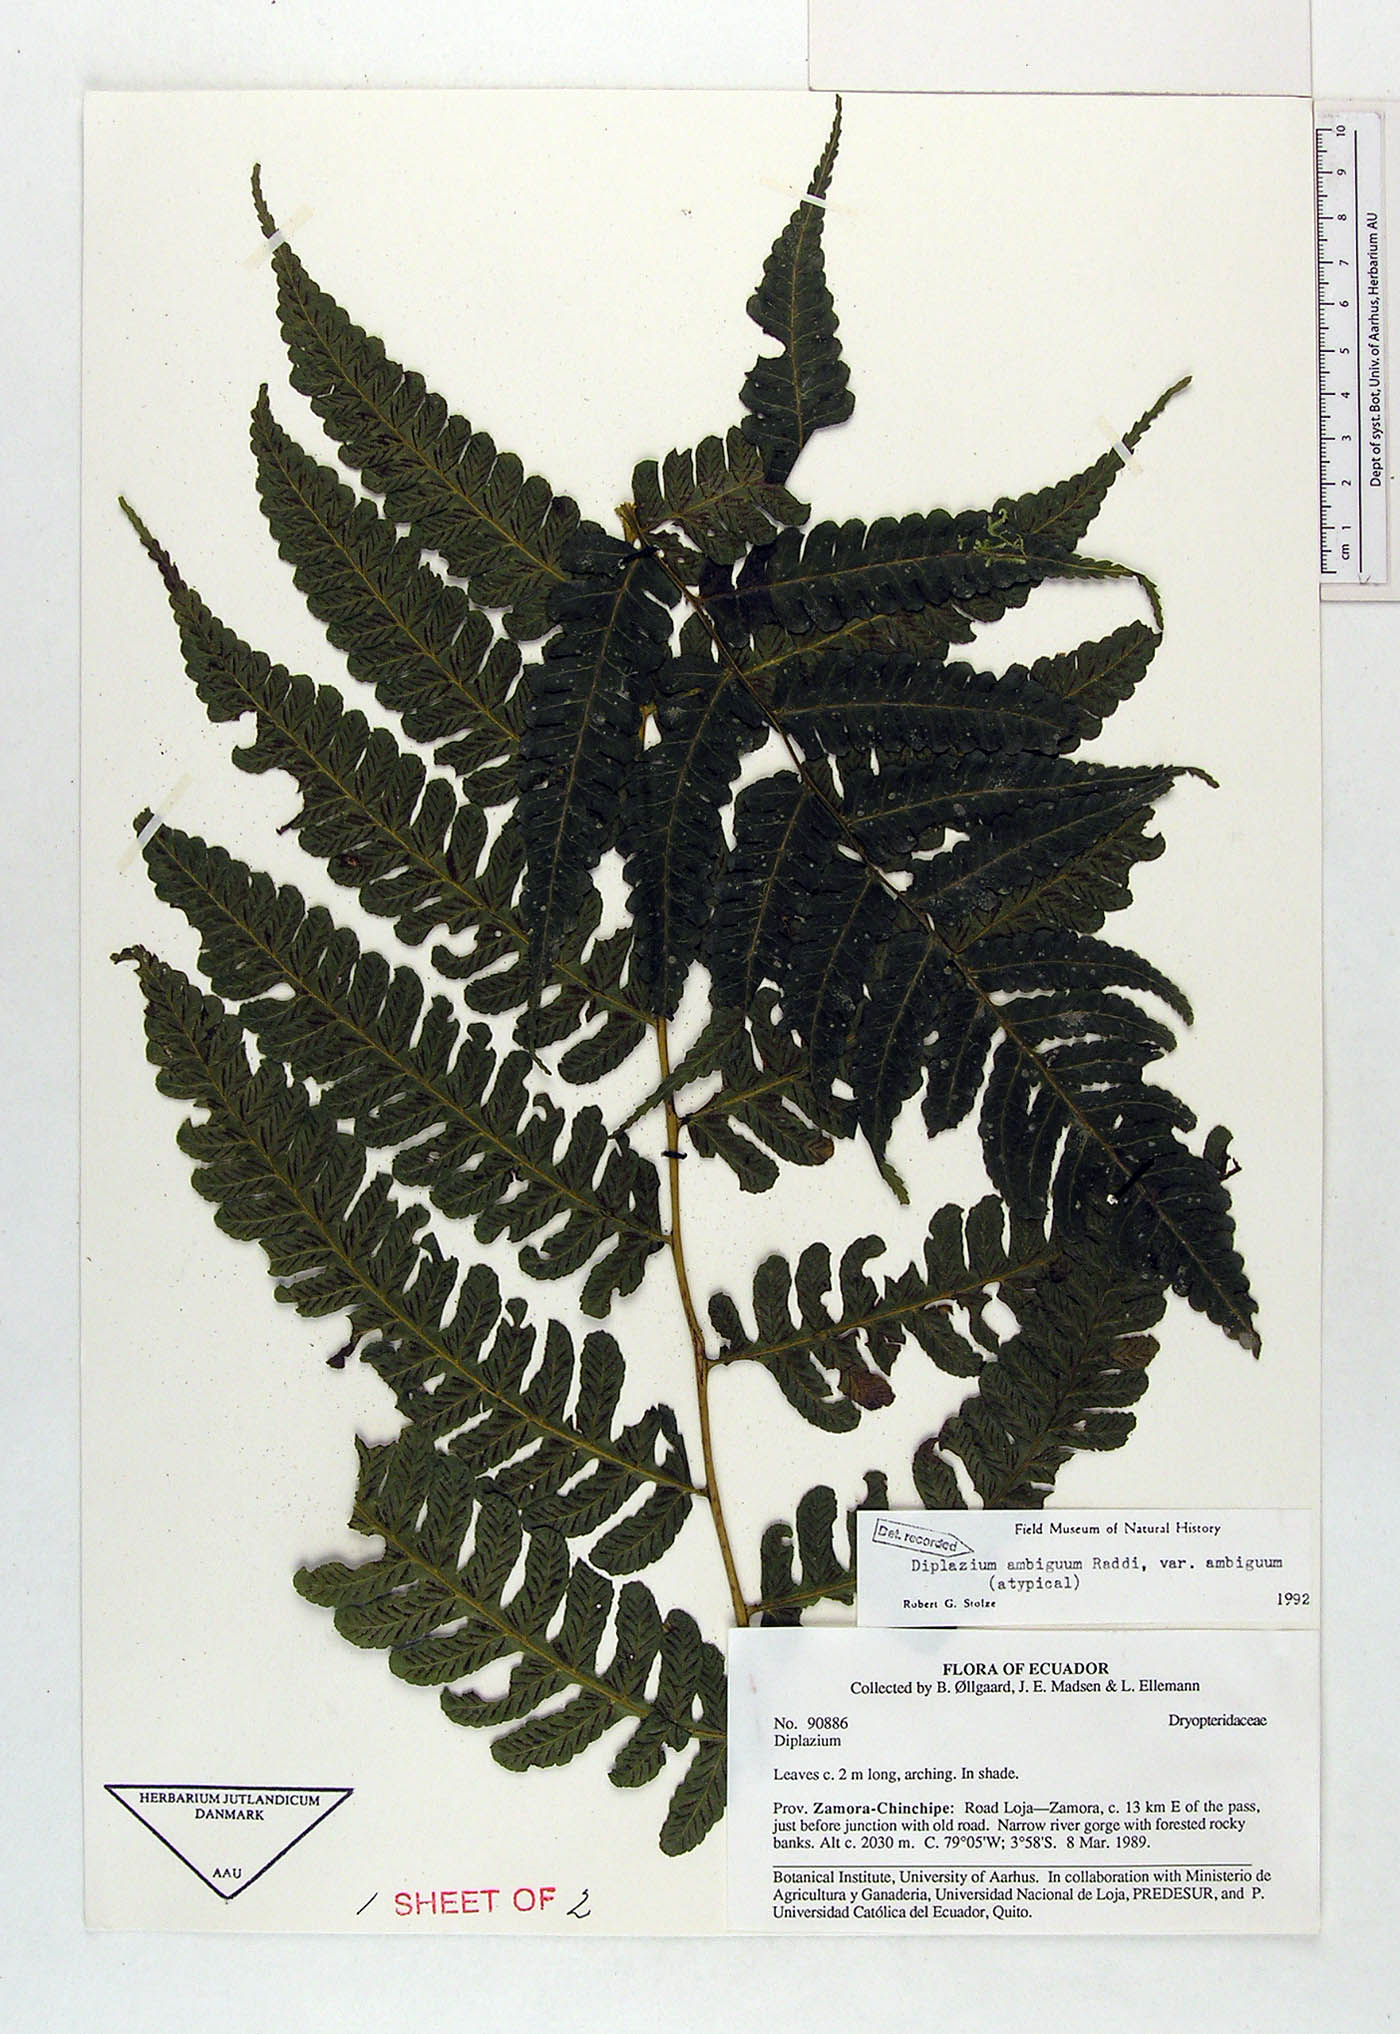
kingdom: Plantae
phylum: Tracheophyta
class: Polypodiopsida
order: Polypodiales
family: Athyriaceae
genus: Diplazium
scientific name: Diplazium ambiguum
